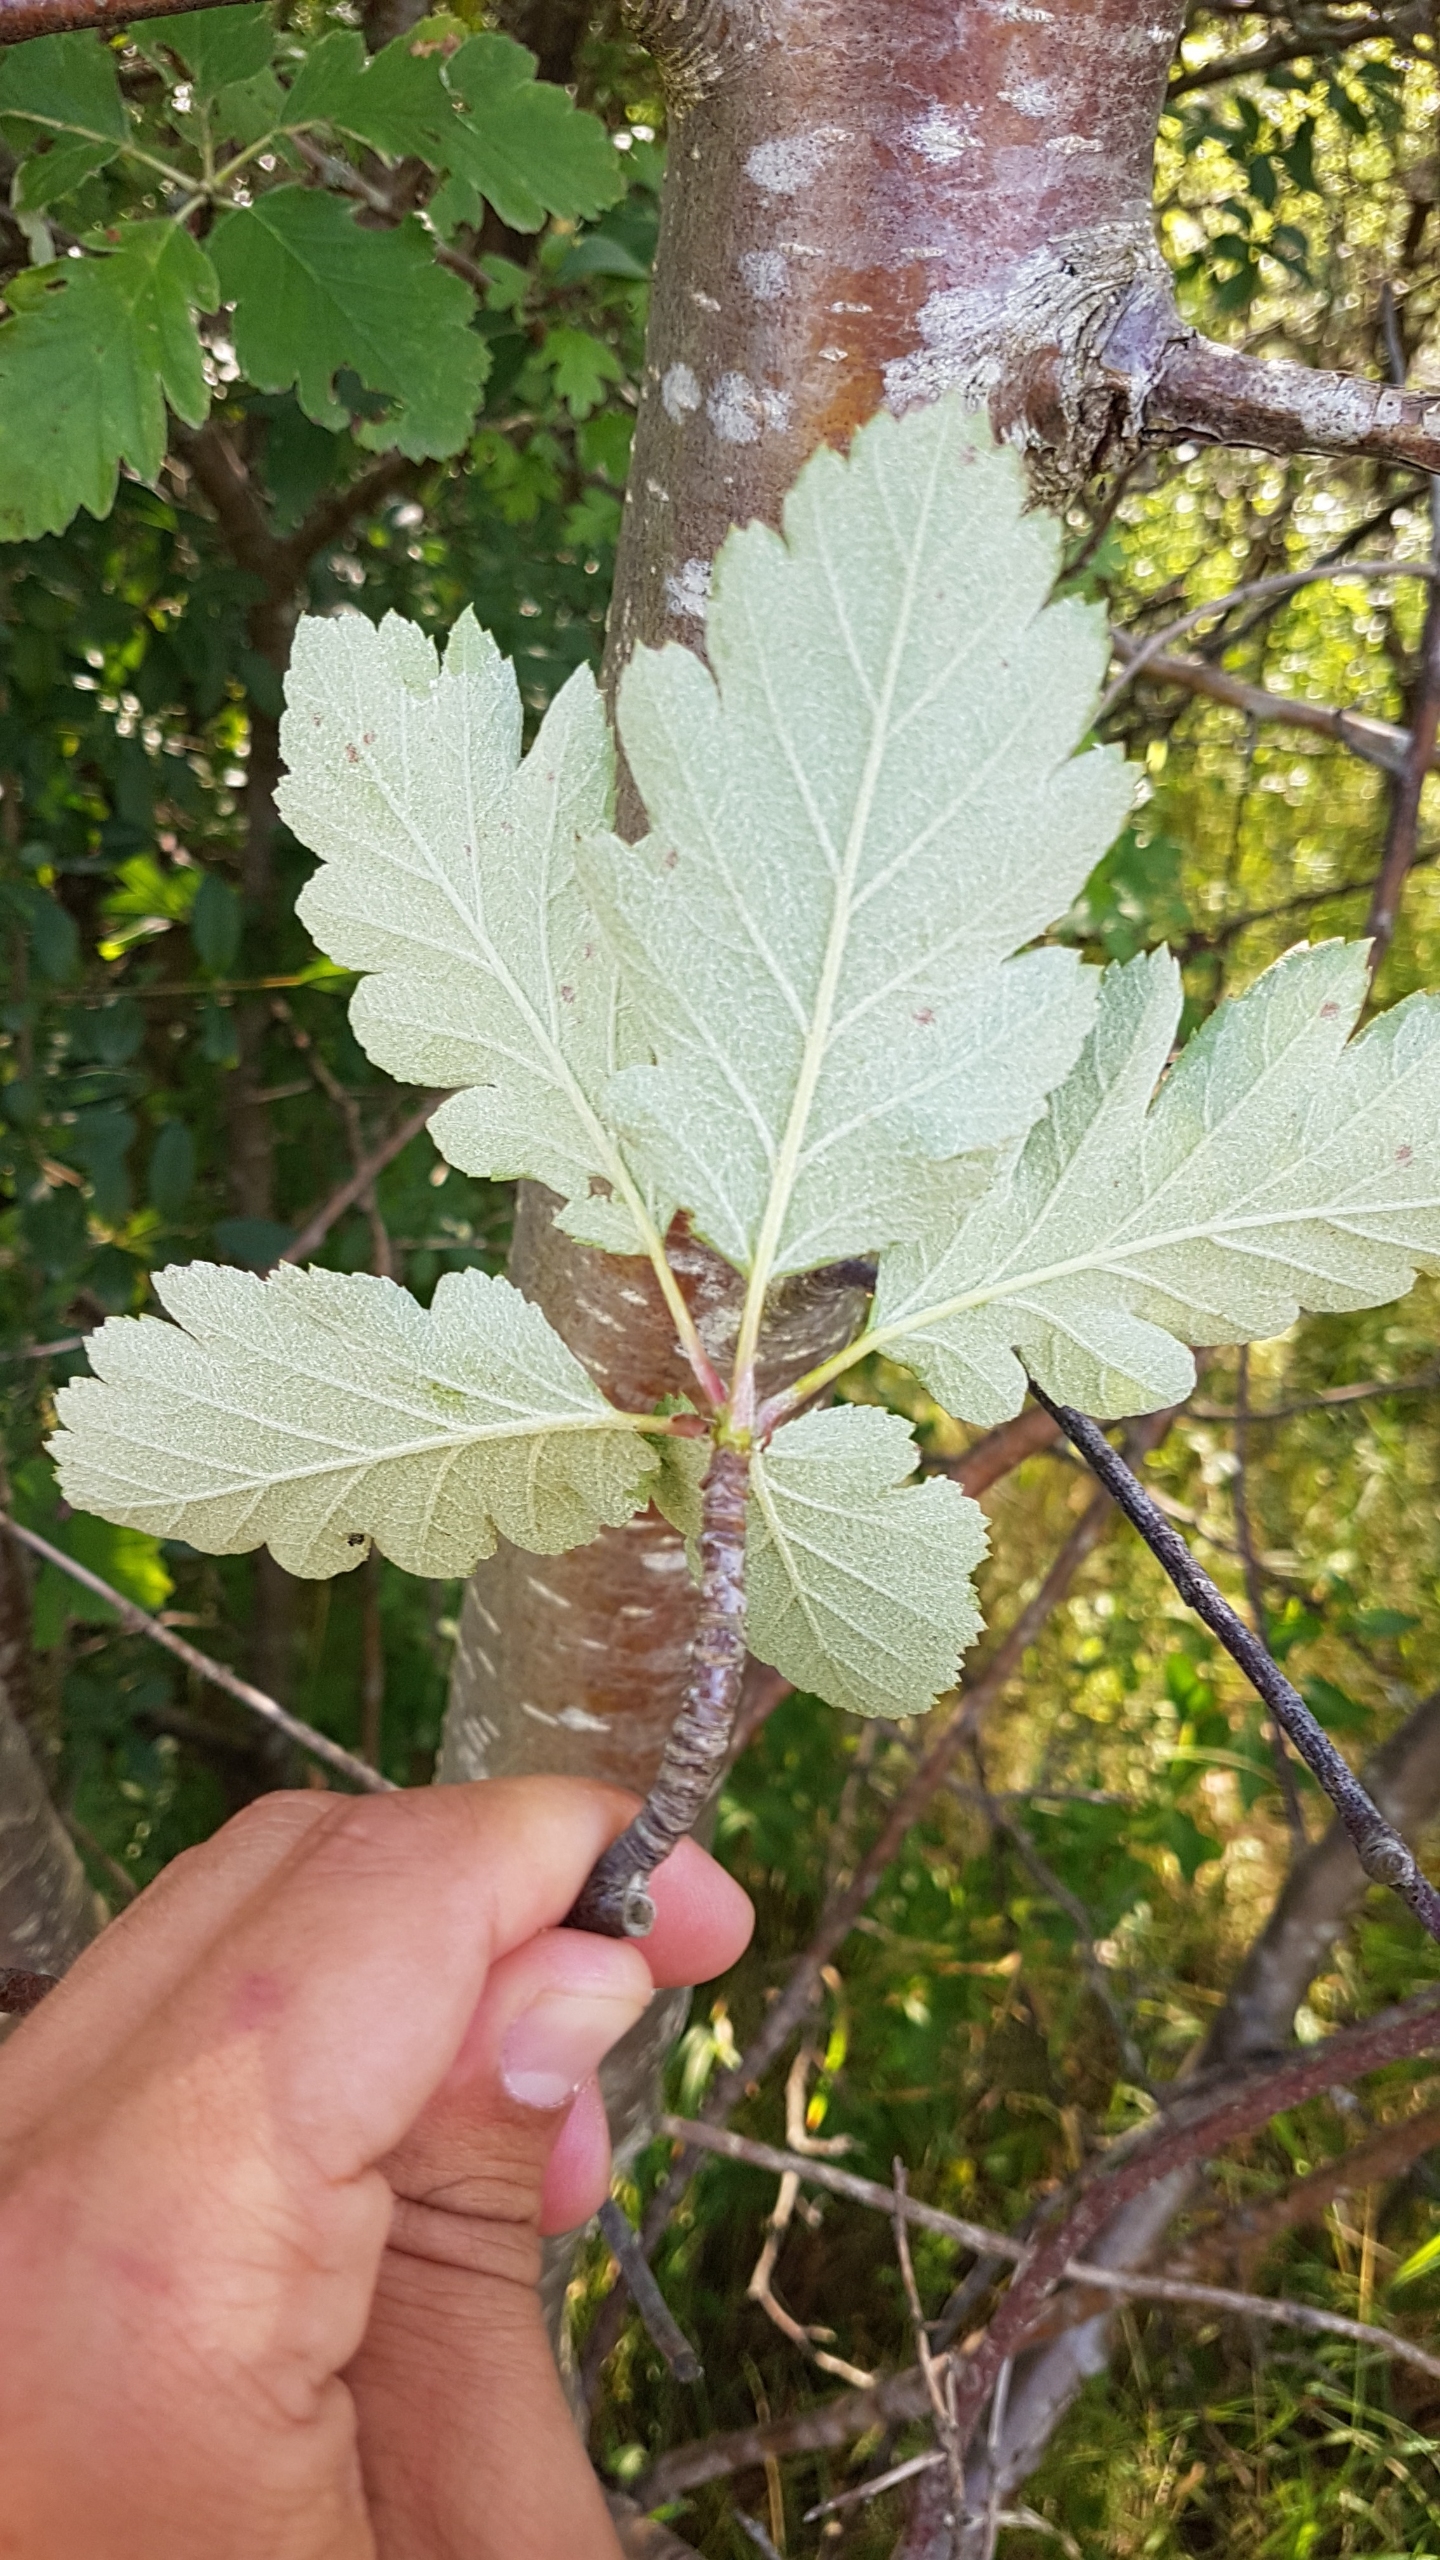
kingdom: Plantae
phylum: Tracheophyta
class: Magnoliopsida
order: Rosales
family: Rosaceae
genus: Scandosorbus
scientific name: Scandosorbus intermedia
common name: Selje-røn
